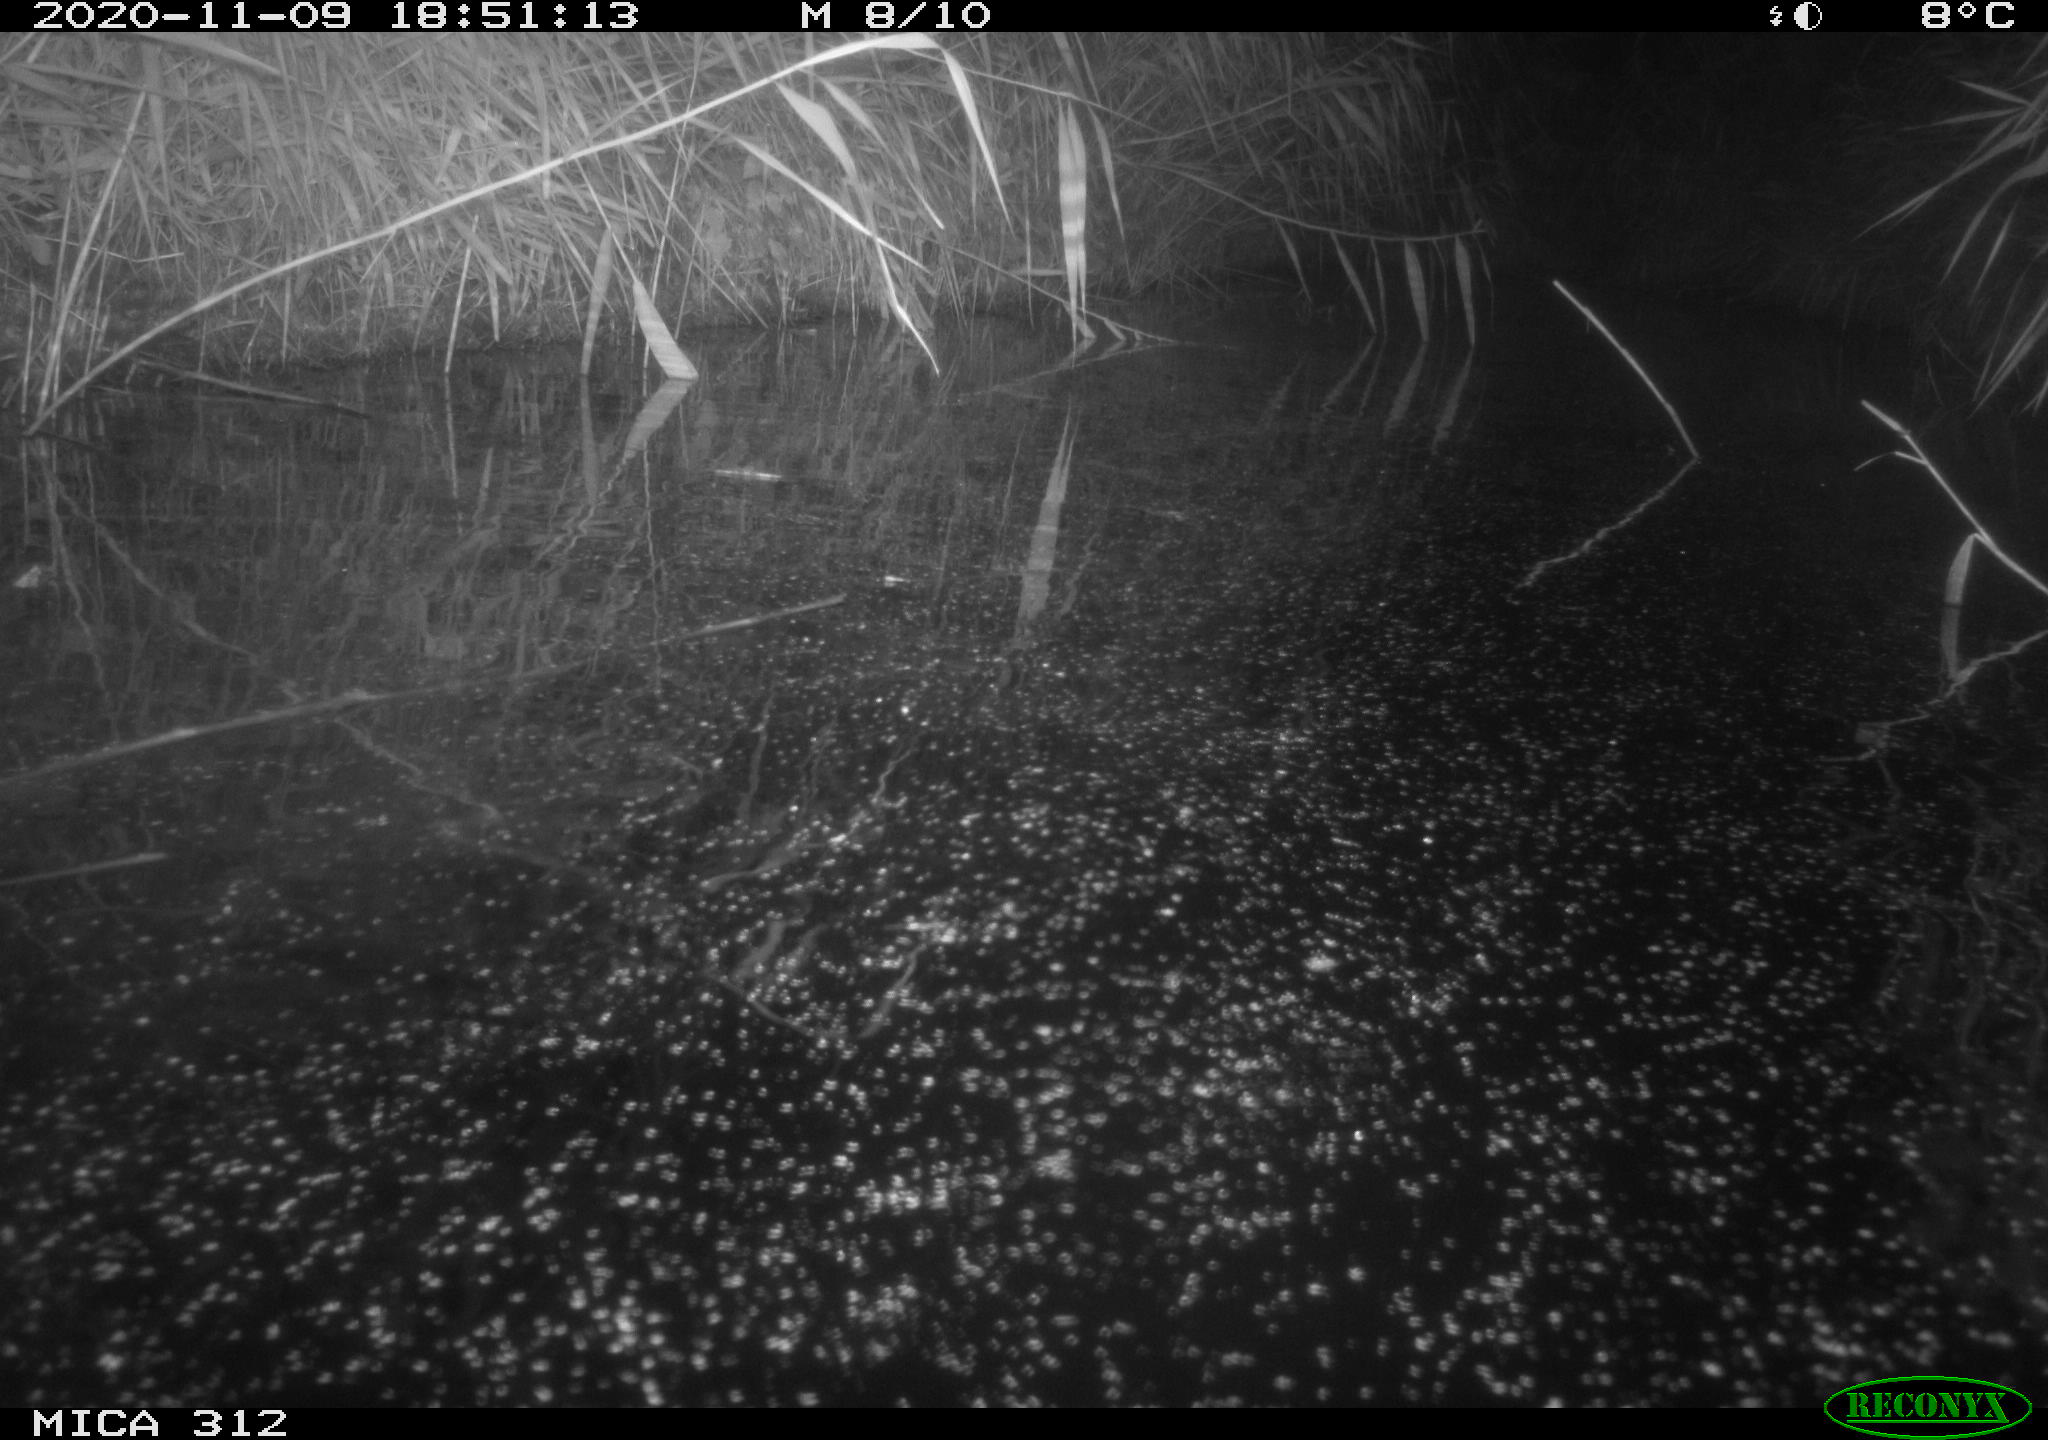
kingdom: Animalia
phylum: Chordata
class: Mammalia
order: Rodentia
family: Muridae
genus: Rattus
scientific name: Rattus norvegicus
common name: Brown rat
